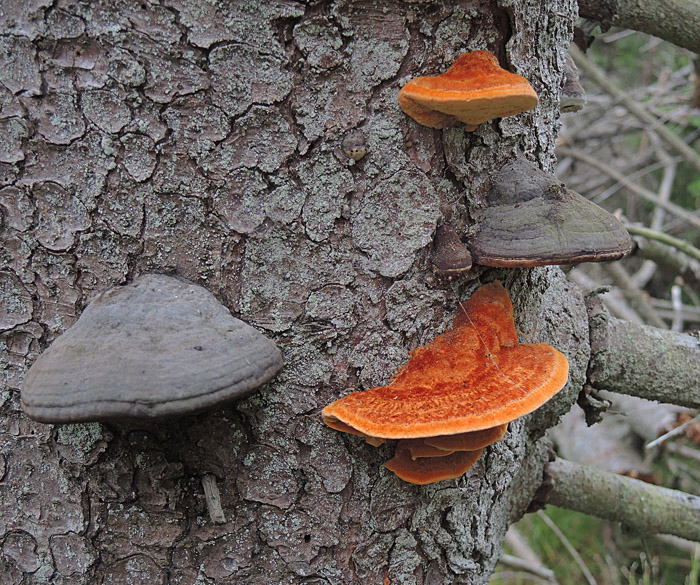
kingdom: Fungi
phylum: Basidiomycota
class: Agaricomycetes
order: Polyporales
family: Pycnoporellaceae
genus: Pycnoporellus
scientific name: Pycnoporellus fulgens
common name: flammeporesvamp
